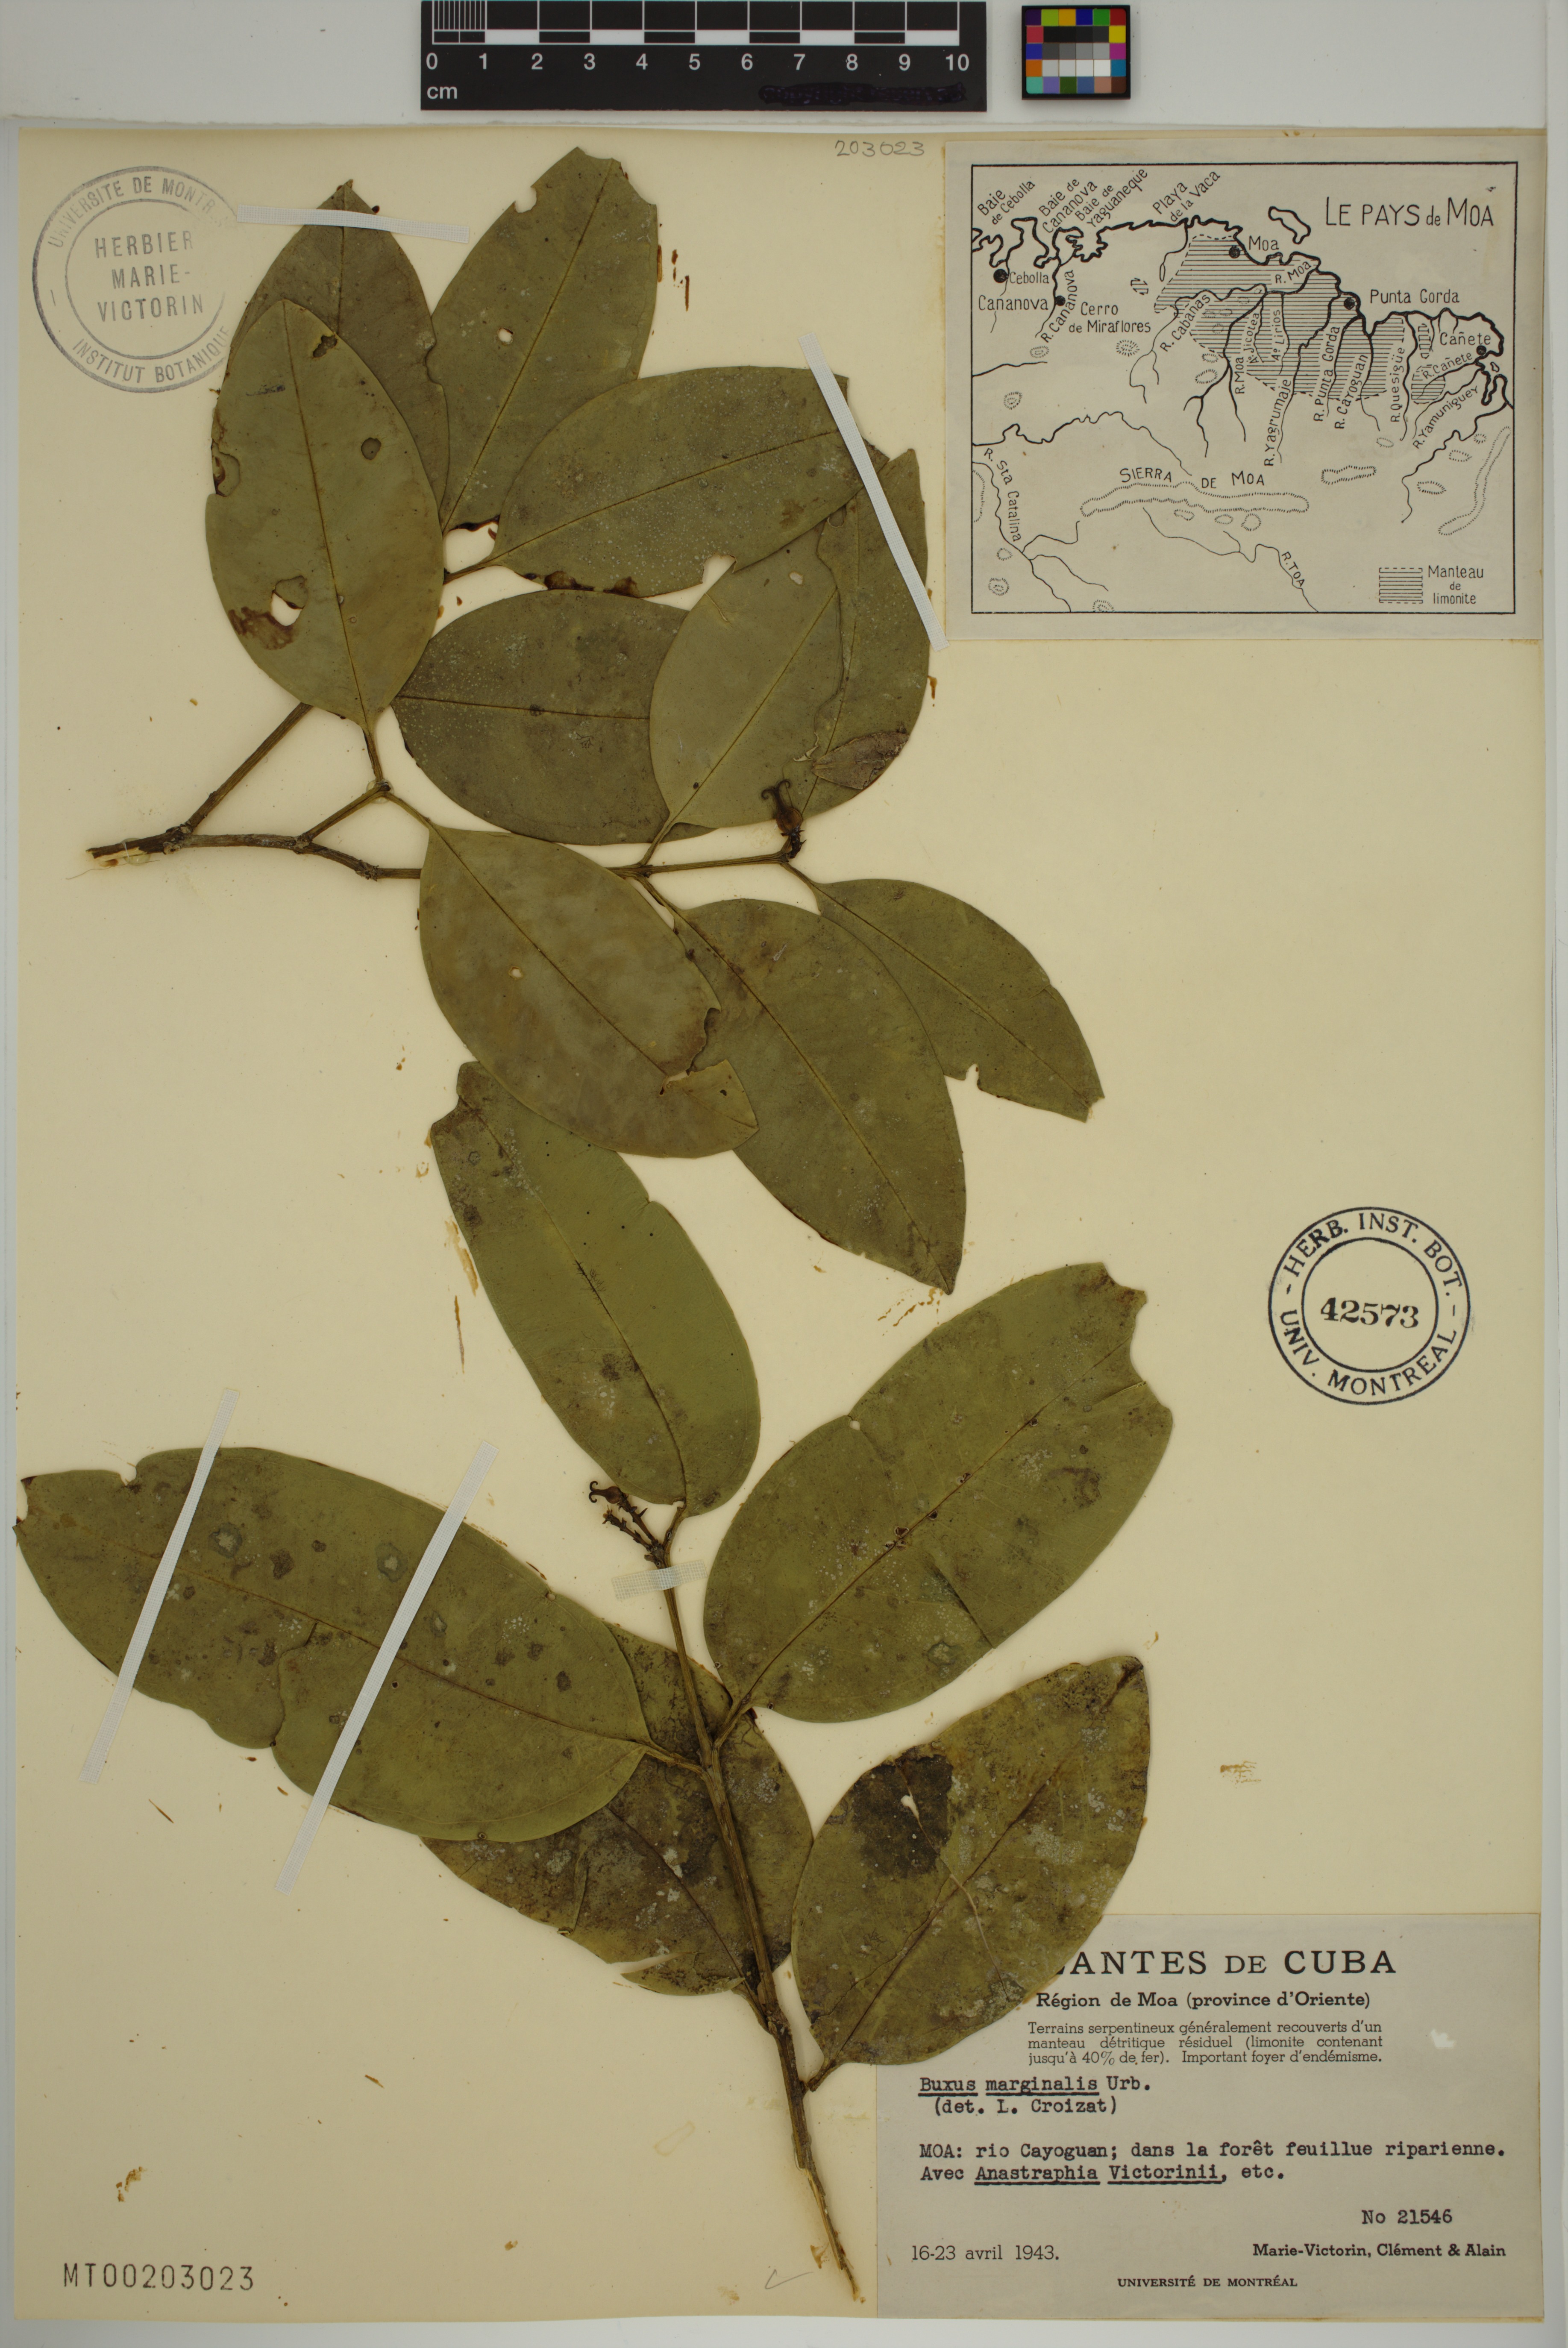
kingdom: Plantae
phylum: Tracheophyta
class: Magnoliopsida
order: Buxales
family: Buxaceae
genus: Buxus
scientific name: Buxus marginalis
